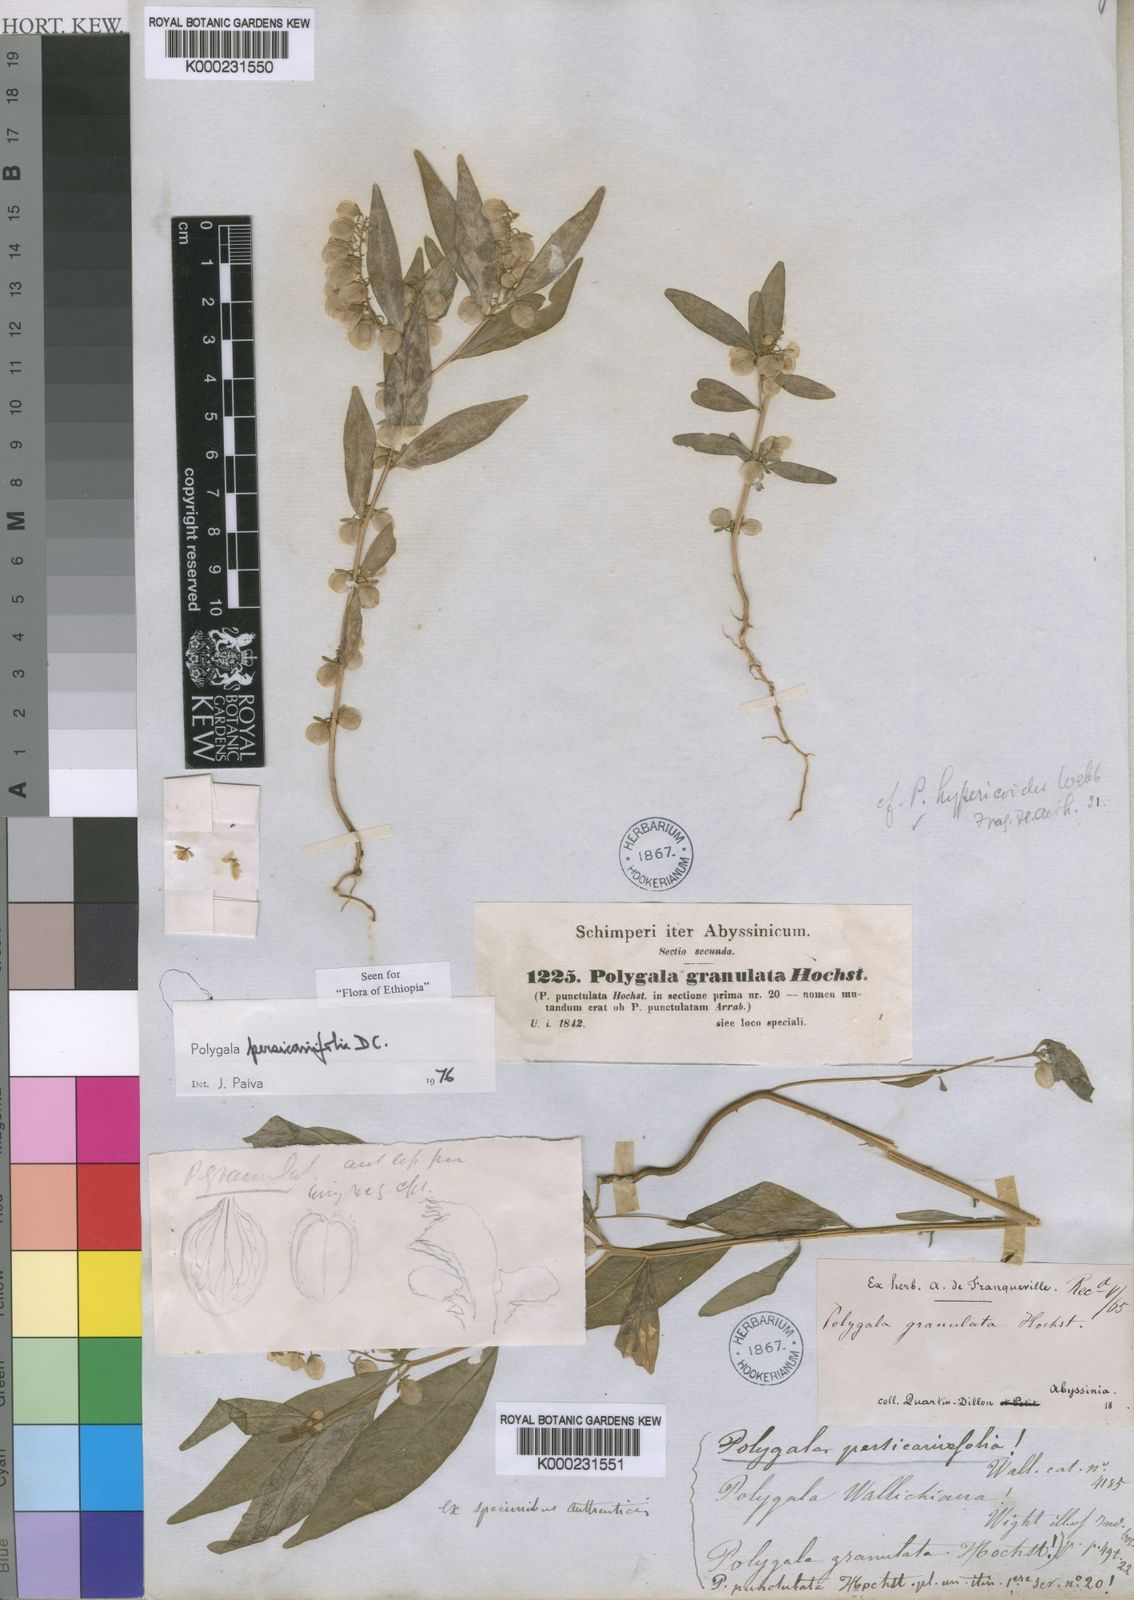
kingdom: Plantae
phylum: Tracheophyta
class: Magnoliopsida
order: Fabales
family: Polygalaceae
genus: Polygala
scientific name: Polygala persicariifolia
